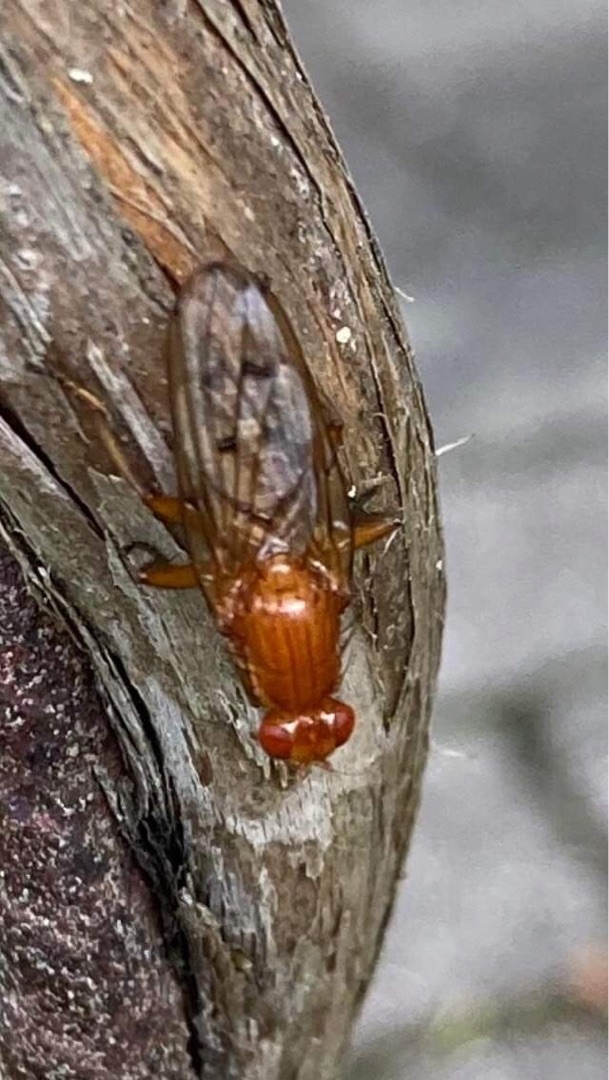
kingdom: Animalia
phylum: Arthropoda
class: Insecta
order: Diptera
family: Dryomyzidae
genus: Dryomyza
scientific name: Dryomyza anilis
